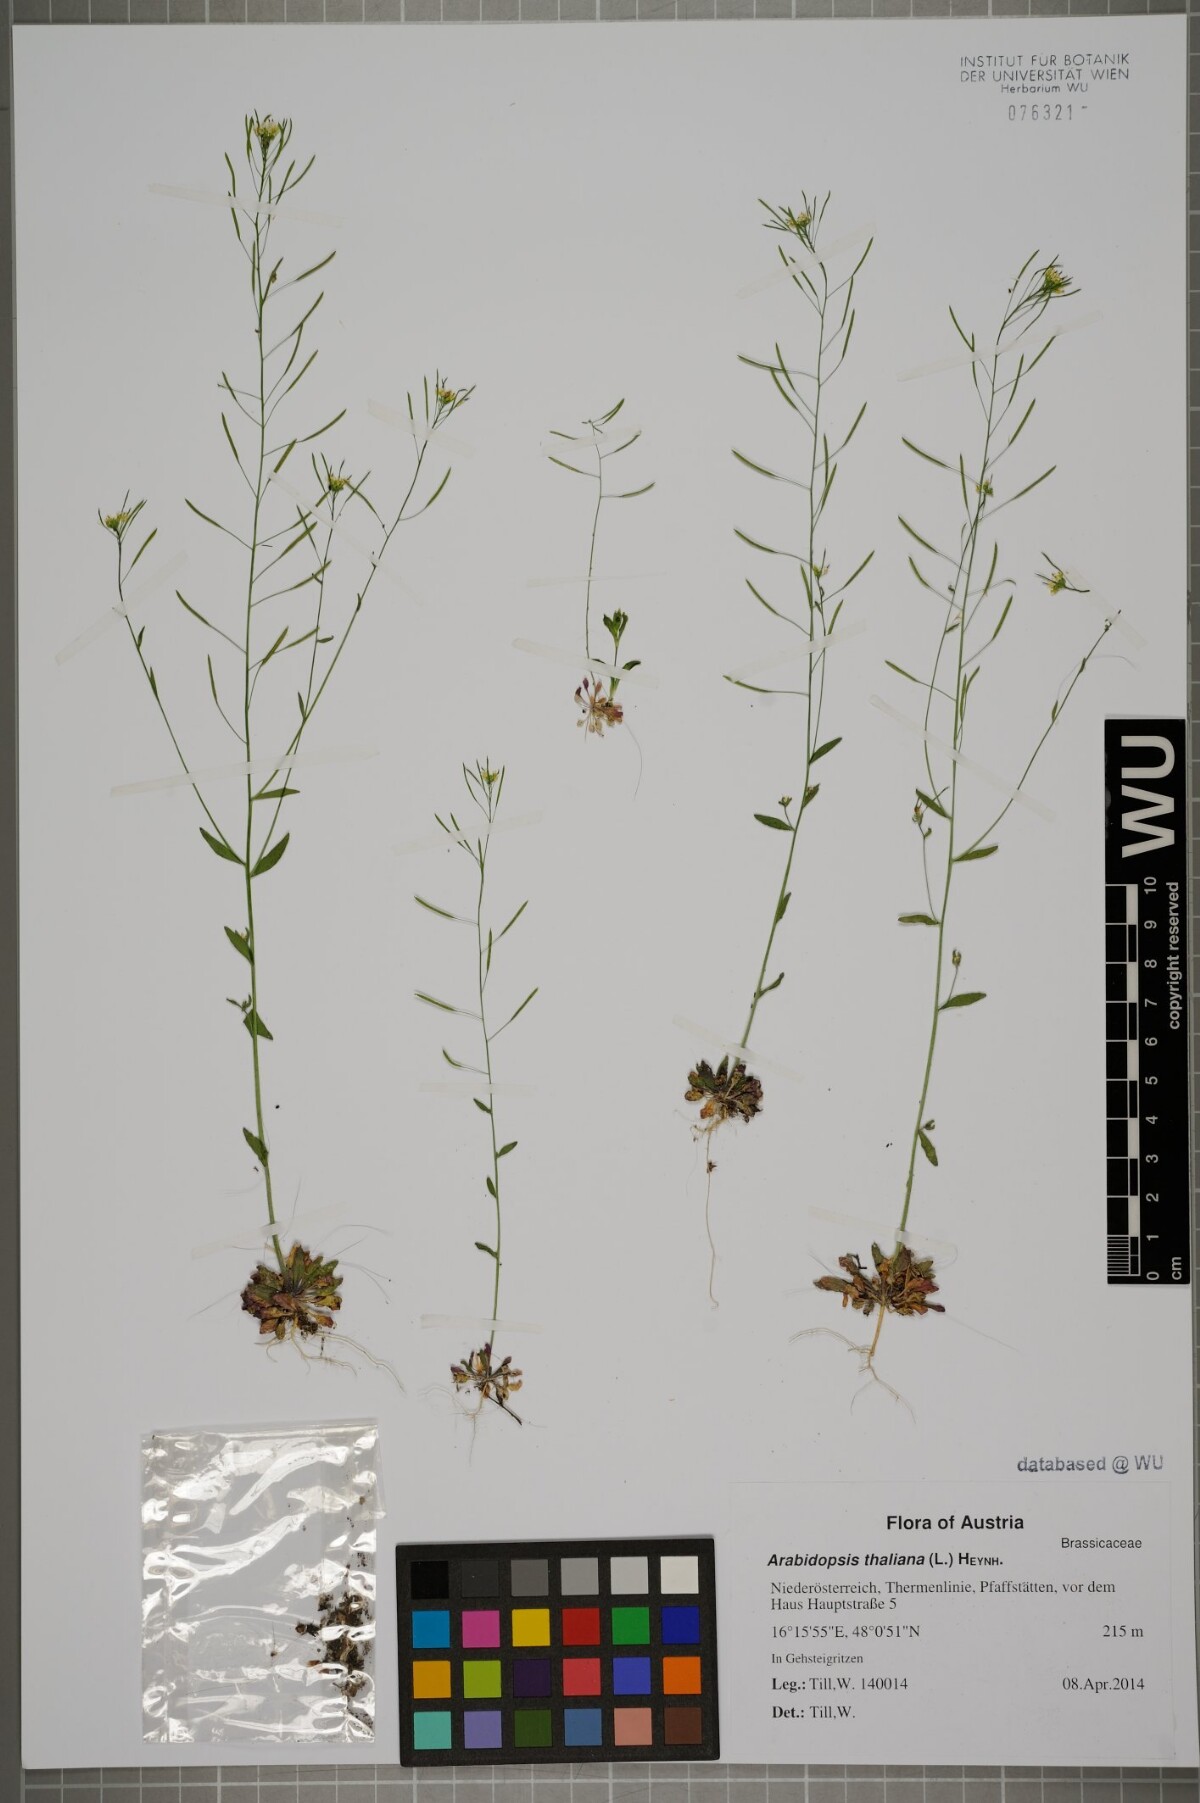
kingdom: Plantae
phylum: Tracheophyta
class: Magnoliopsida
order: Brassicales
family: Brassicaceae
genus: Arabidopsis
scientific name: Arabidopsis thaliana
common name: Thale cress
